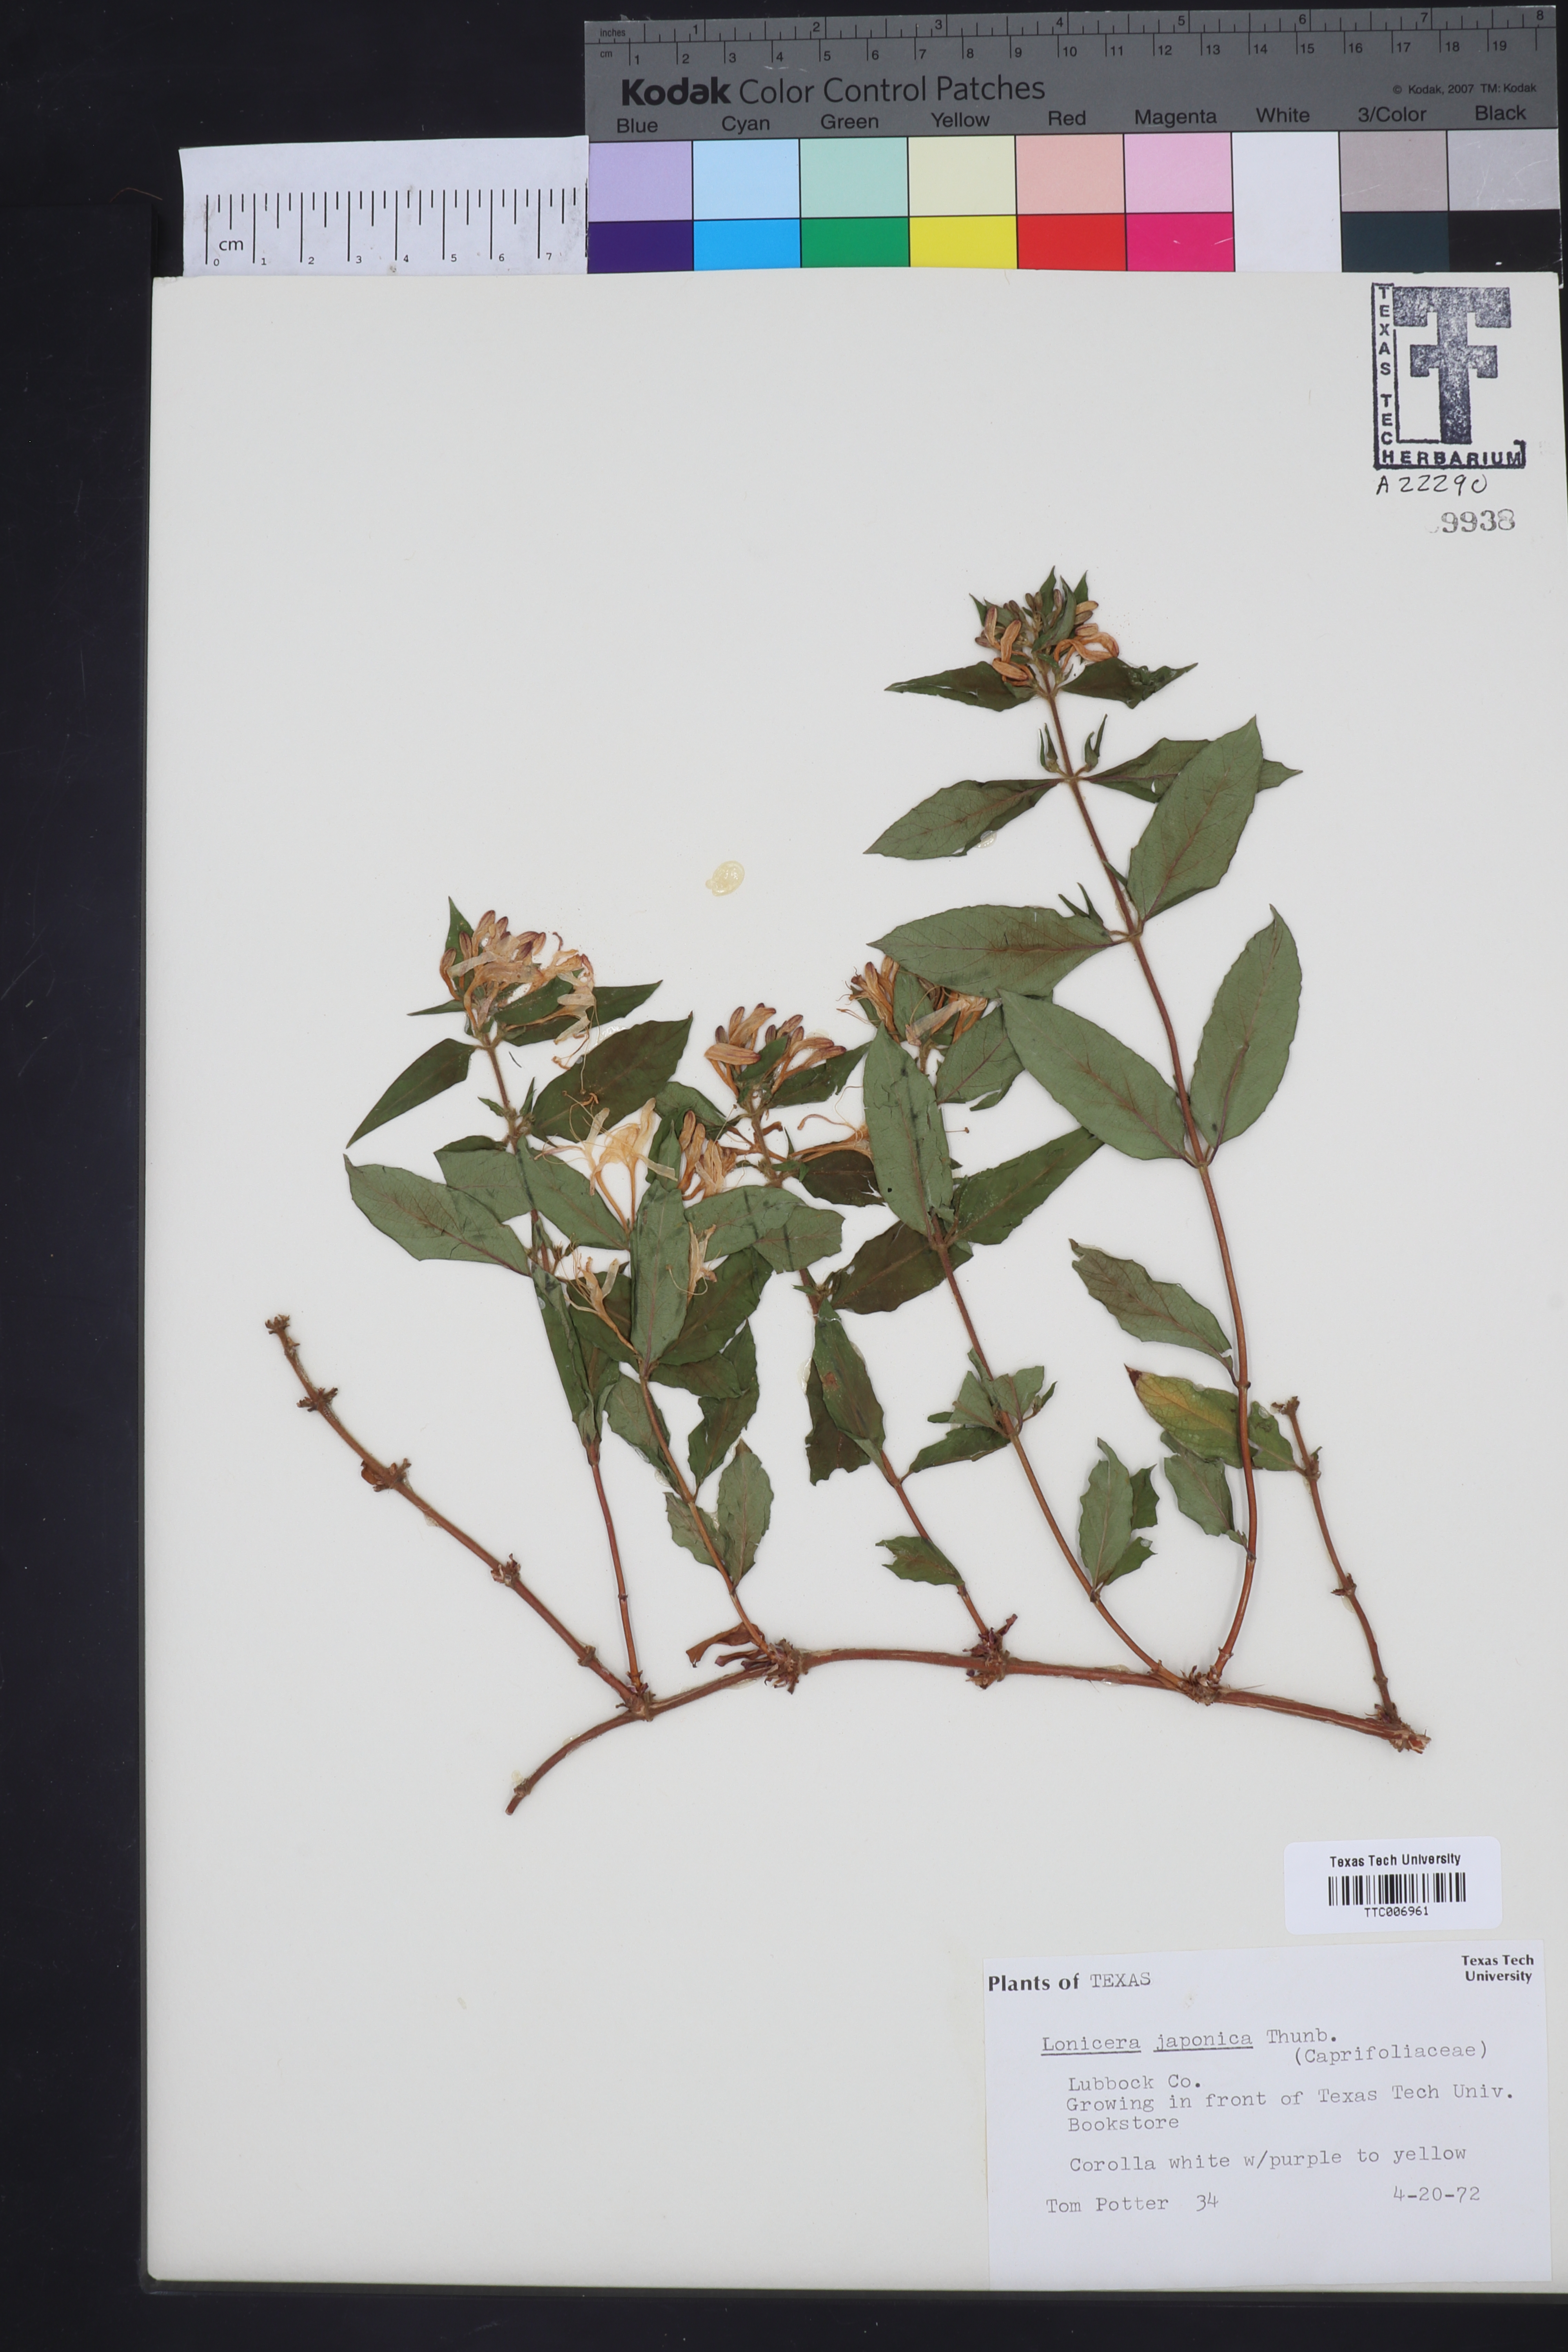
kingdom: Plantae
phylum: Tracheophyta
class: Magnoliopsida
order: Dipsacales
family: Caprifoliaceae
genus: Lonicera
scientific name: Lonicera japonica
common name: Japanese honeysuckle
